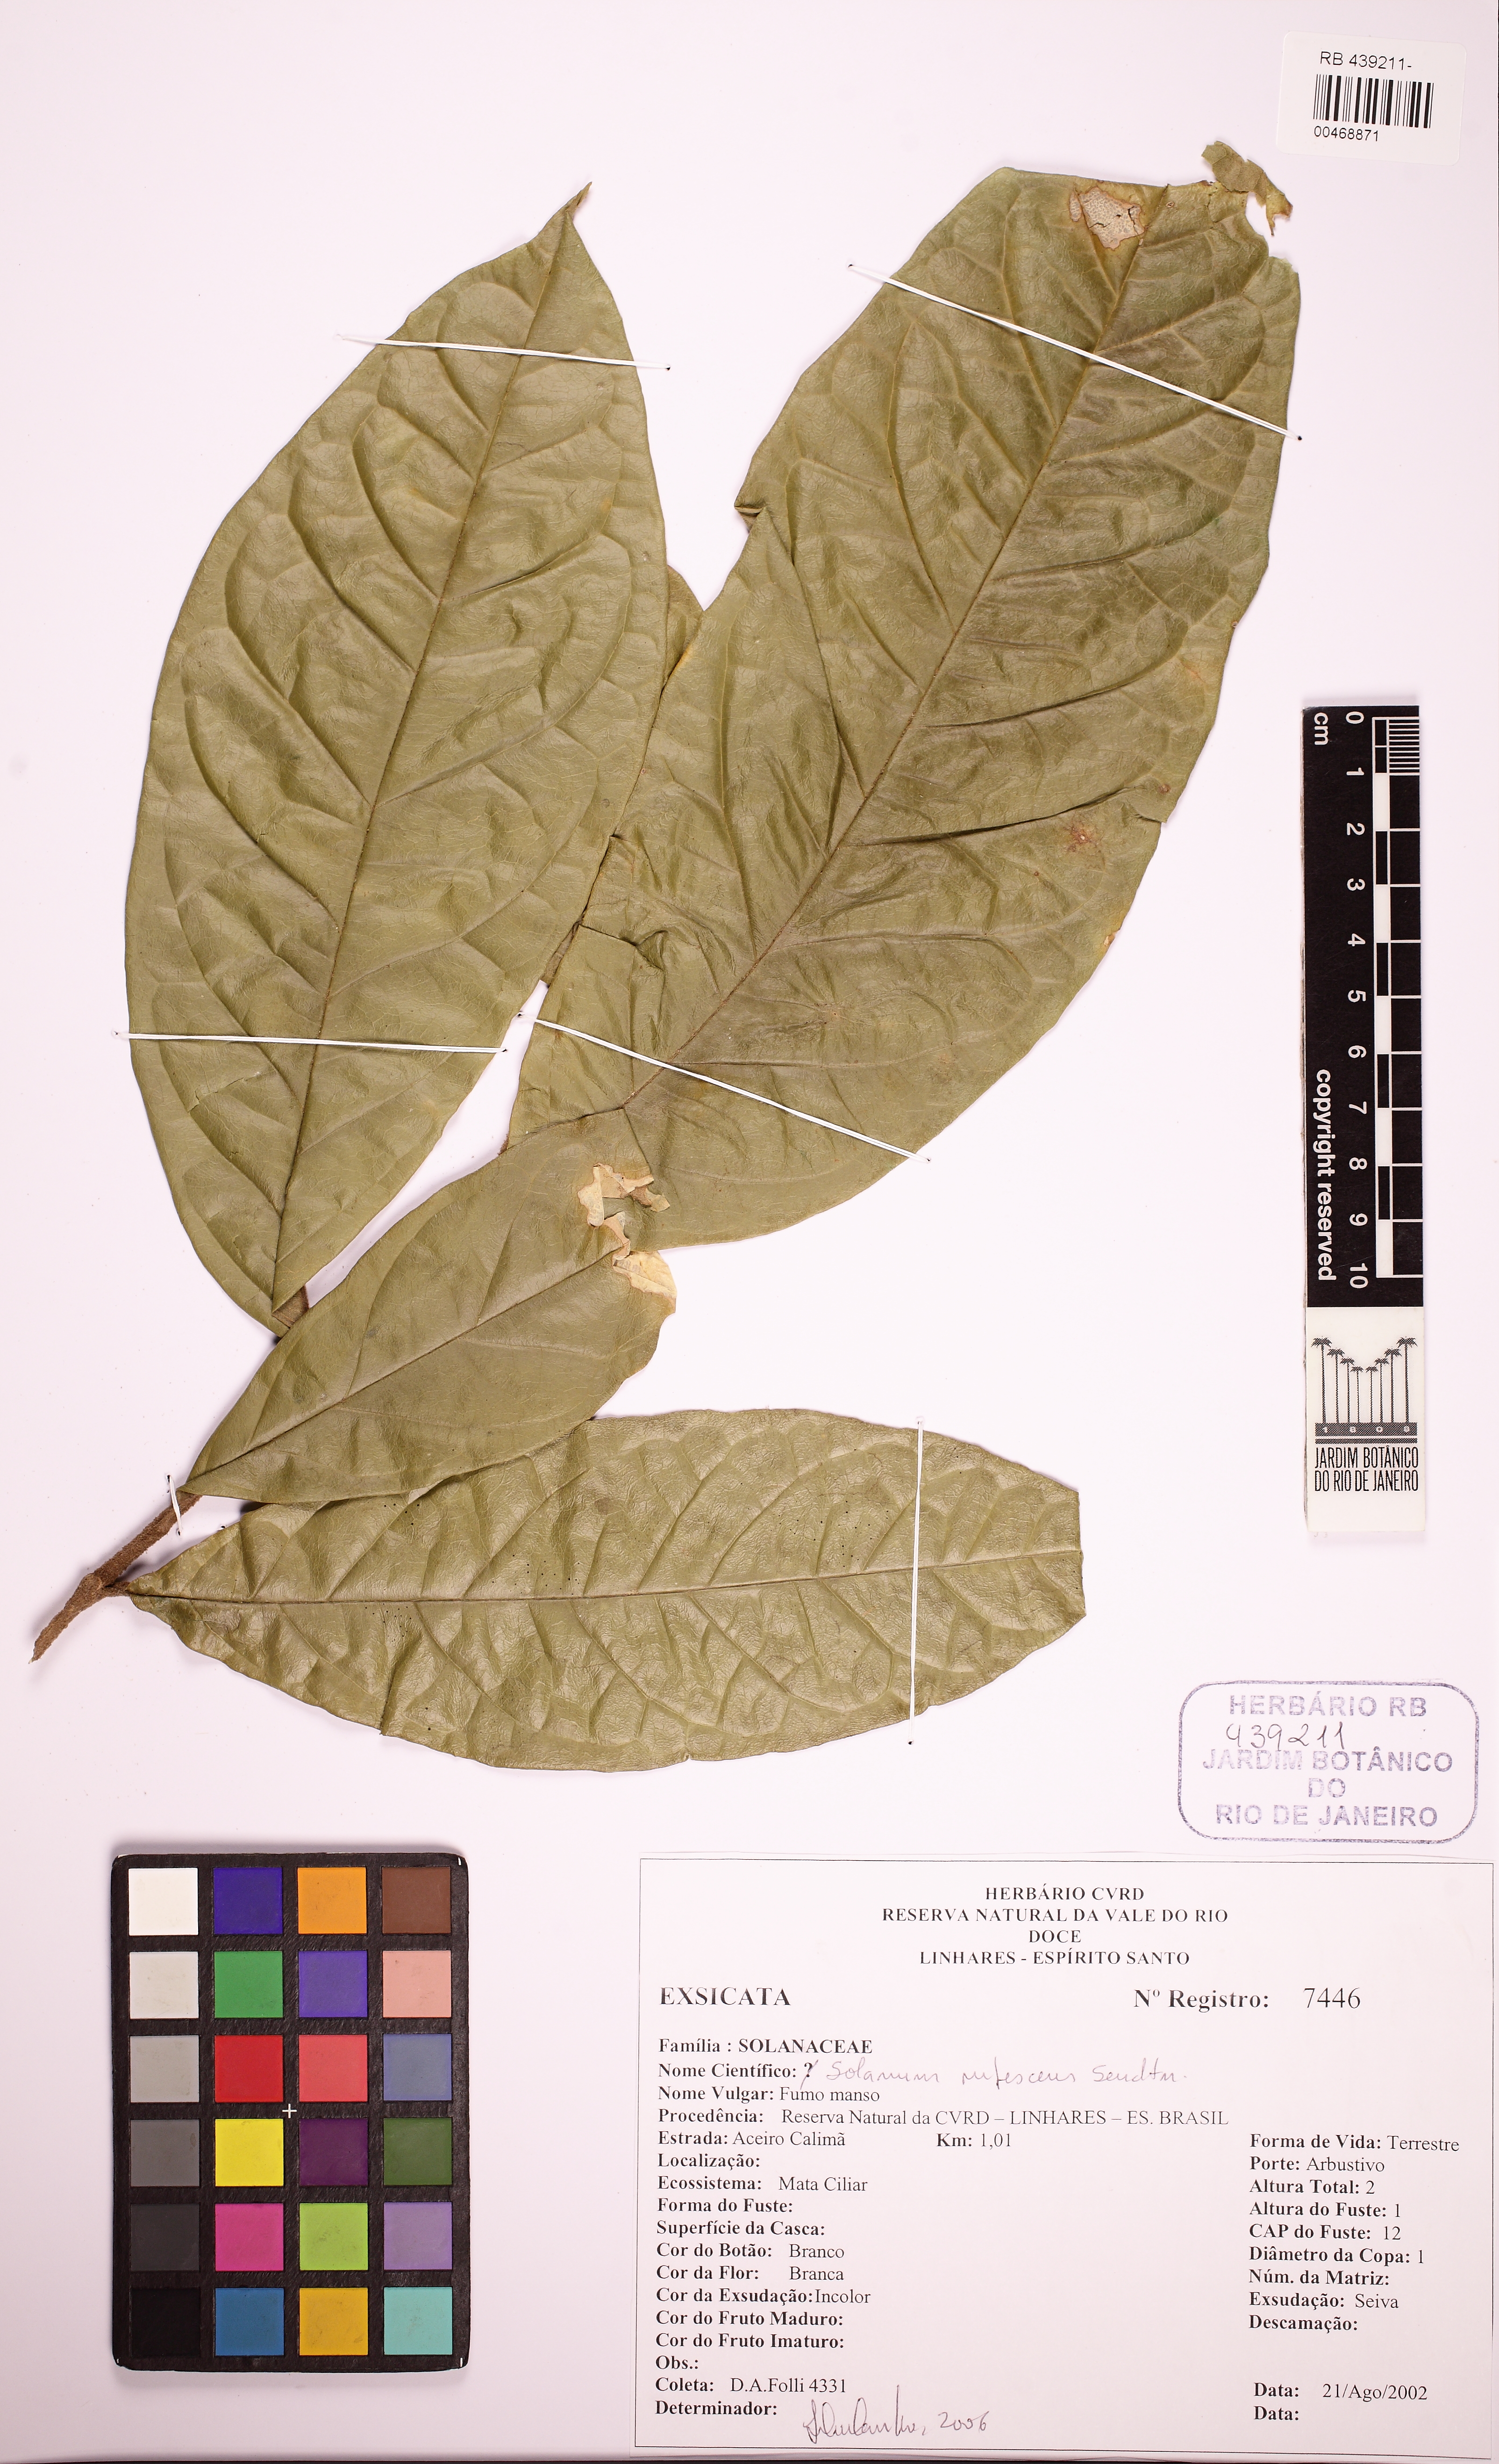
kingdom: Plantae
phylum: Tracheophyta
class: Magnoliopsida
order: Solanales
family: Solanaceae
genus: Solanum
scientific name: Solanum rufescens
